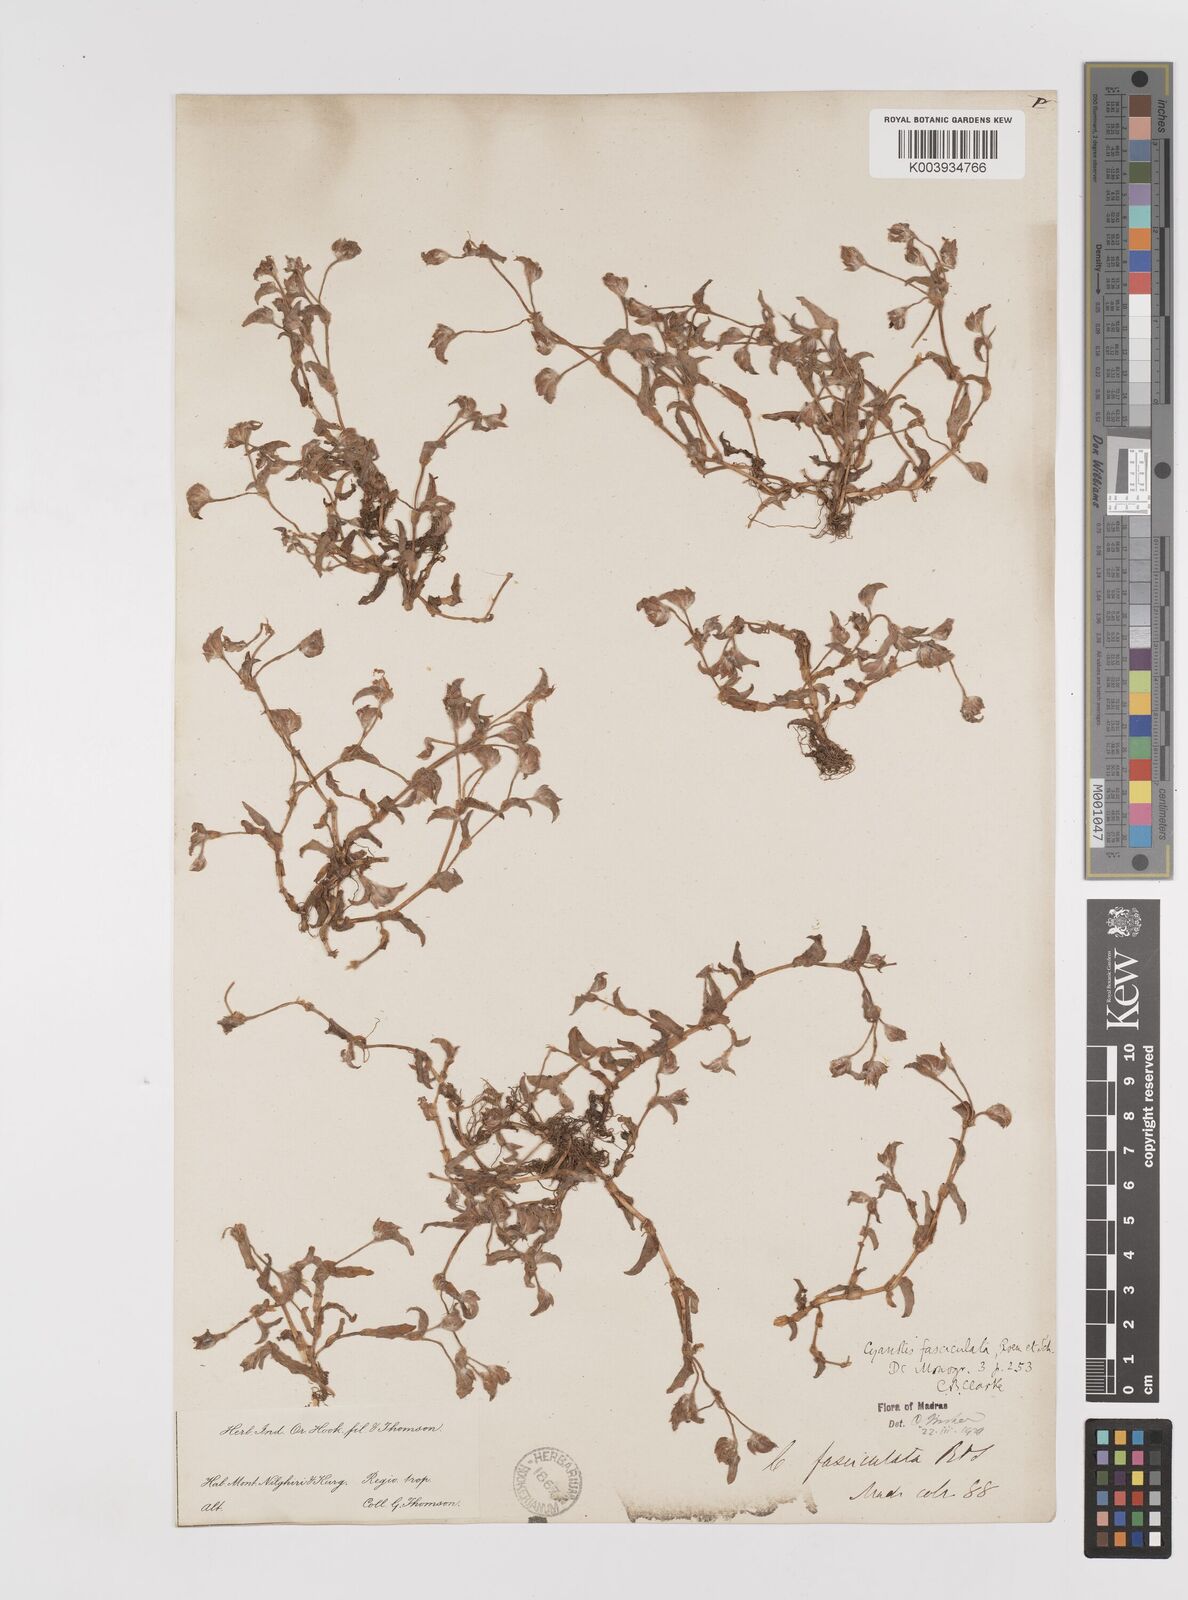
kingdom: Plantae
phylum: Tracheophyta
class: Liliopsida
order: Commelinales
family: Commelinaceae
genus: Cyanotis
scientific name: Cyanotis fasciculata
